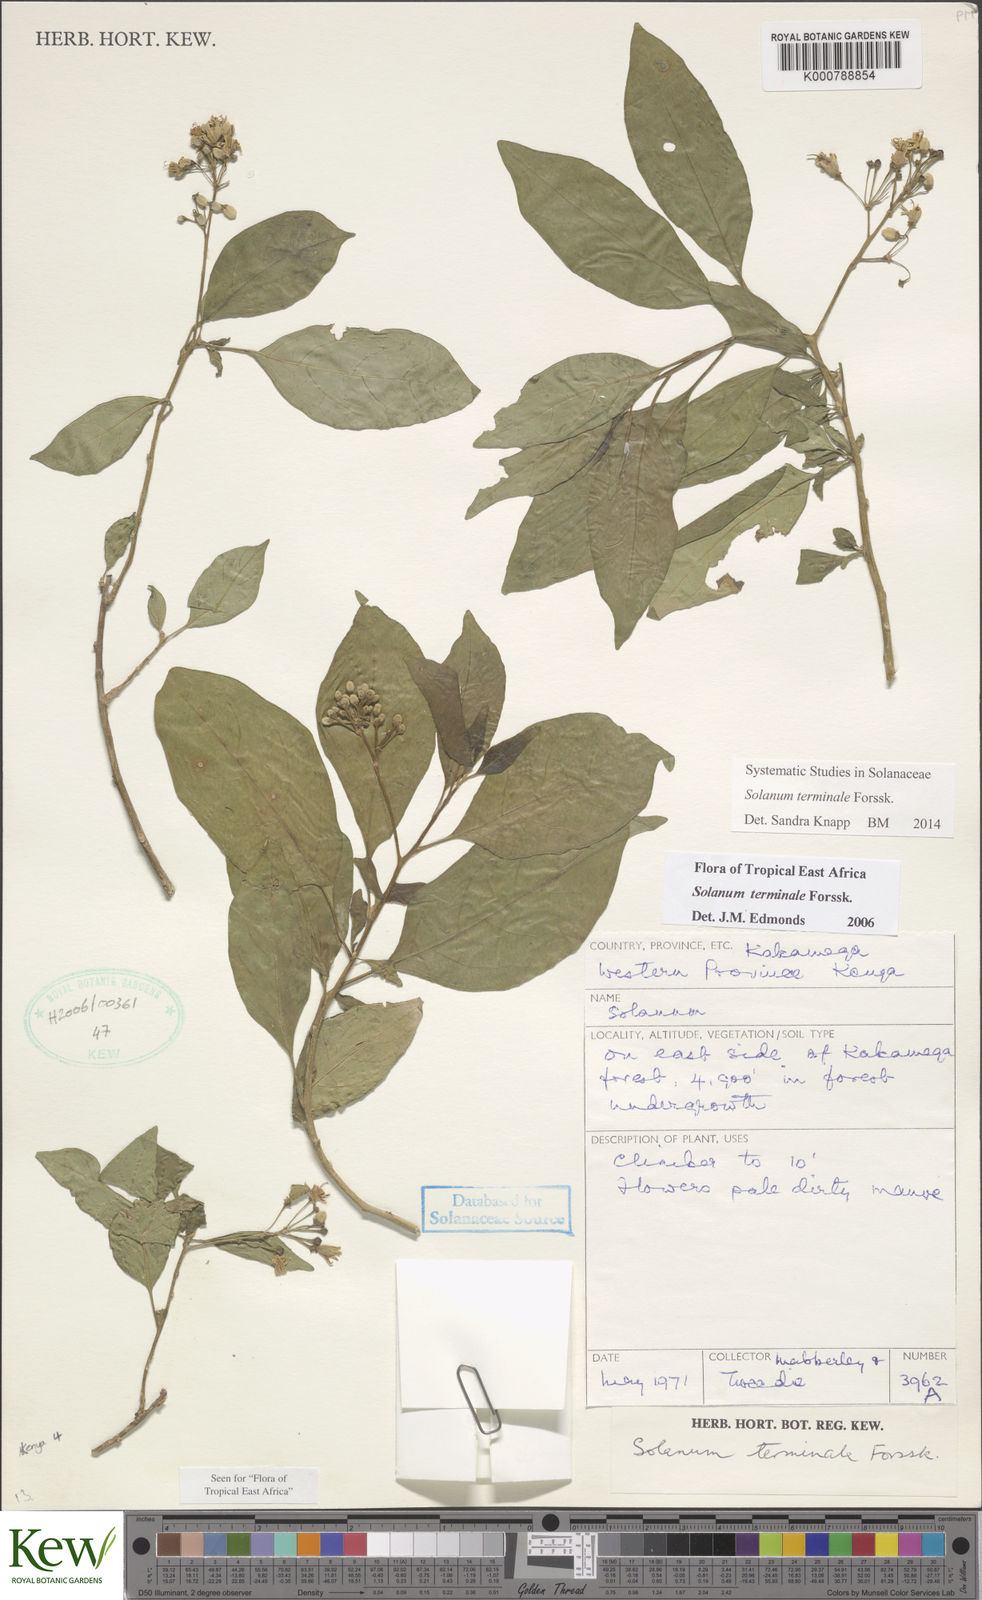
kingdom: Plantae
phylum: Tracheophyta
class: Magnoliopsida
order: Solanales
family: Solanaceae
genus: Solanum
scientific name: Solanum terminale
